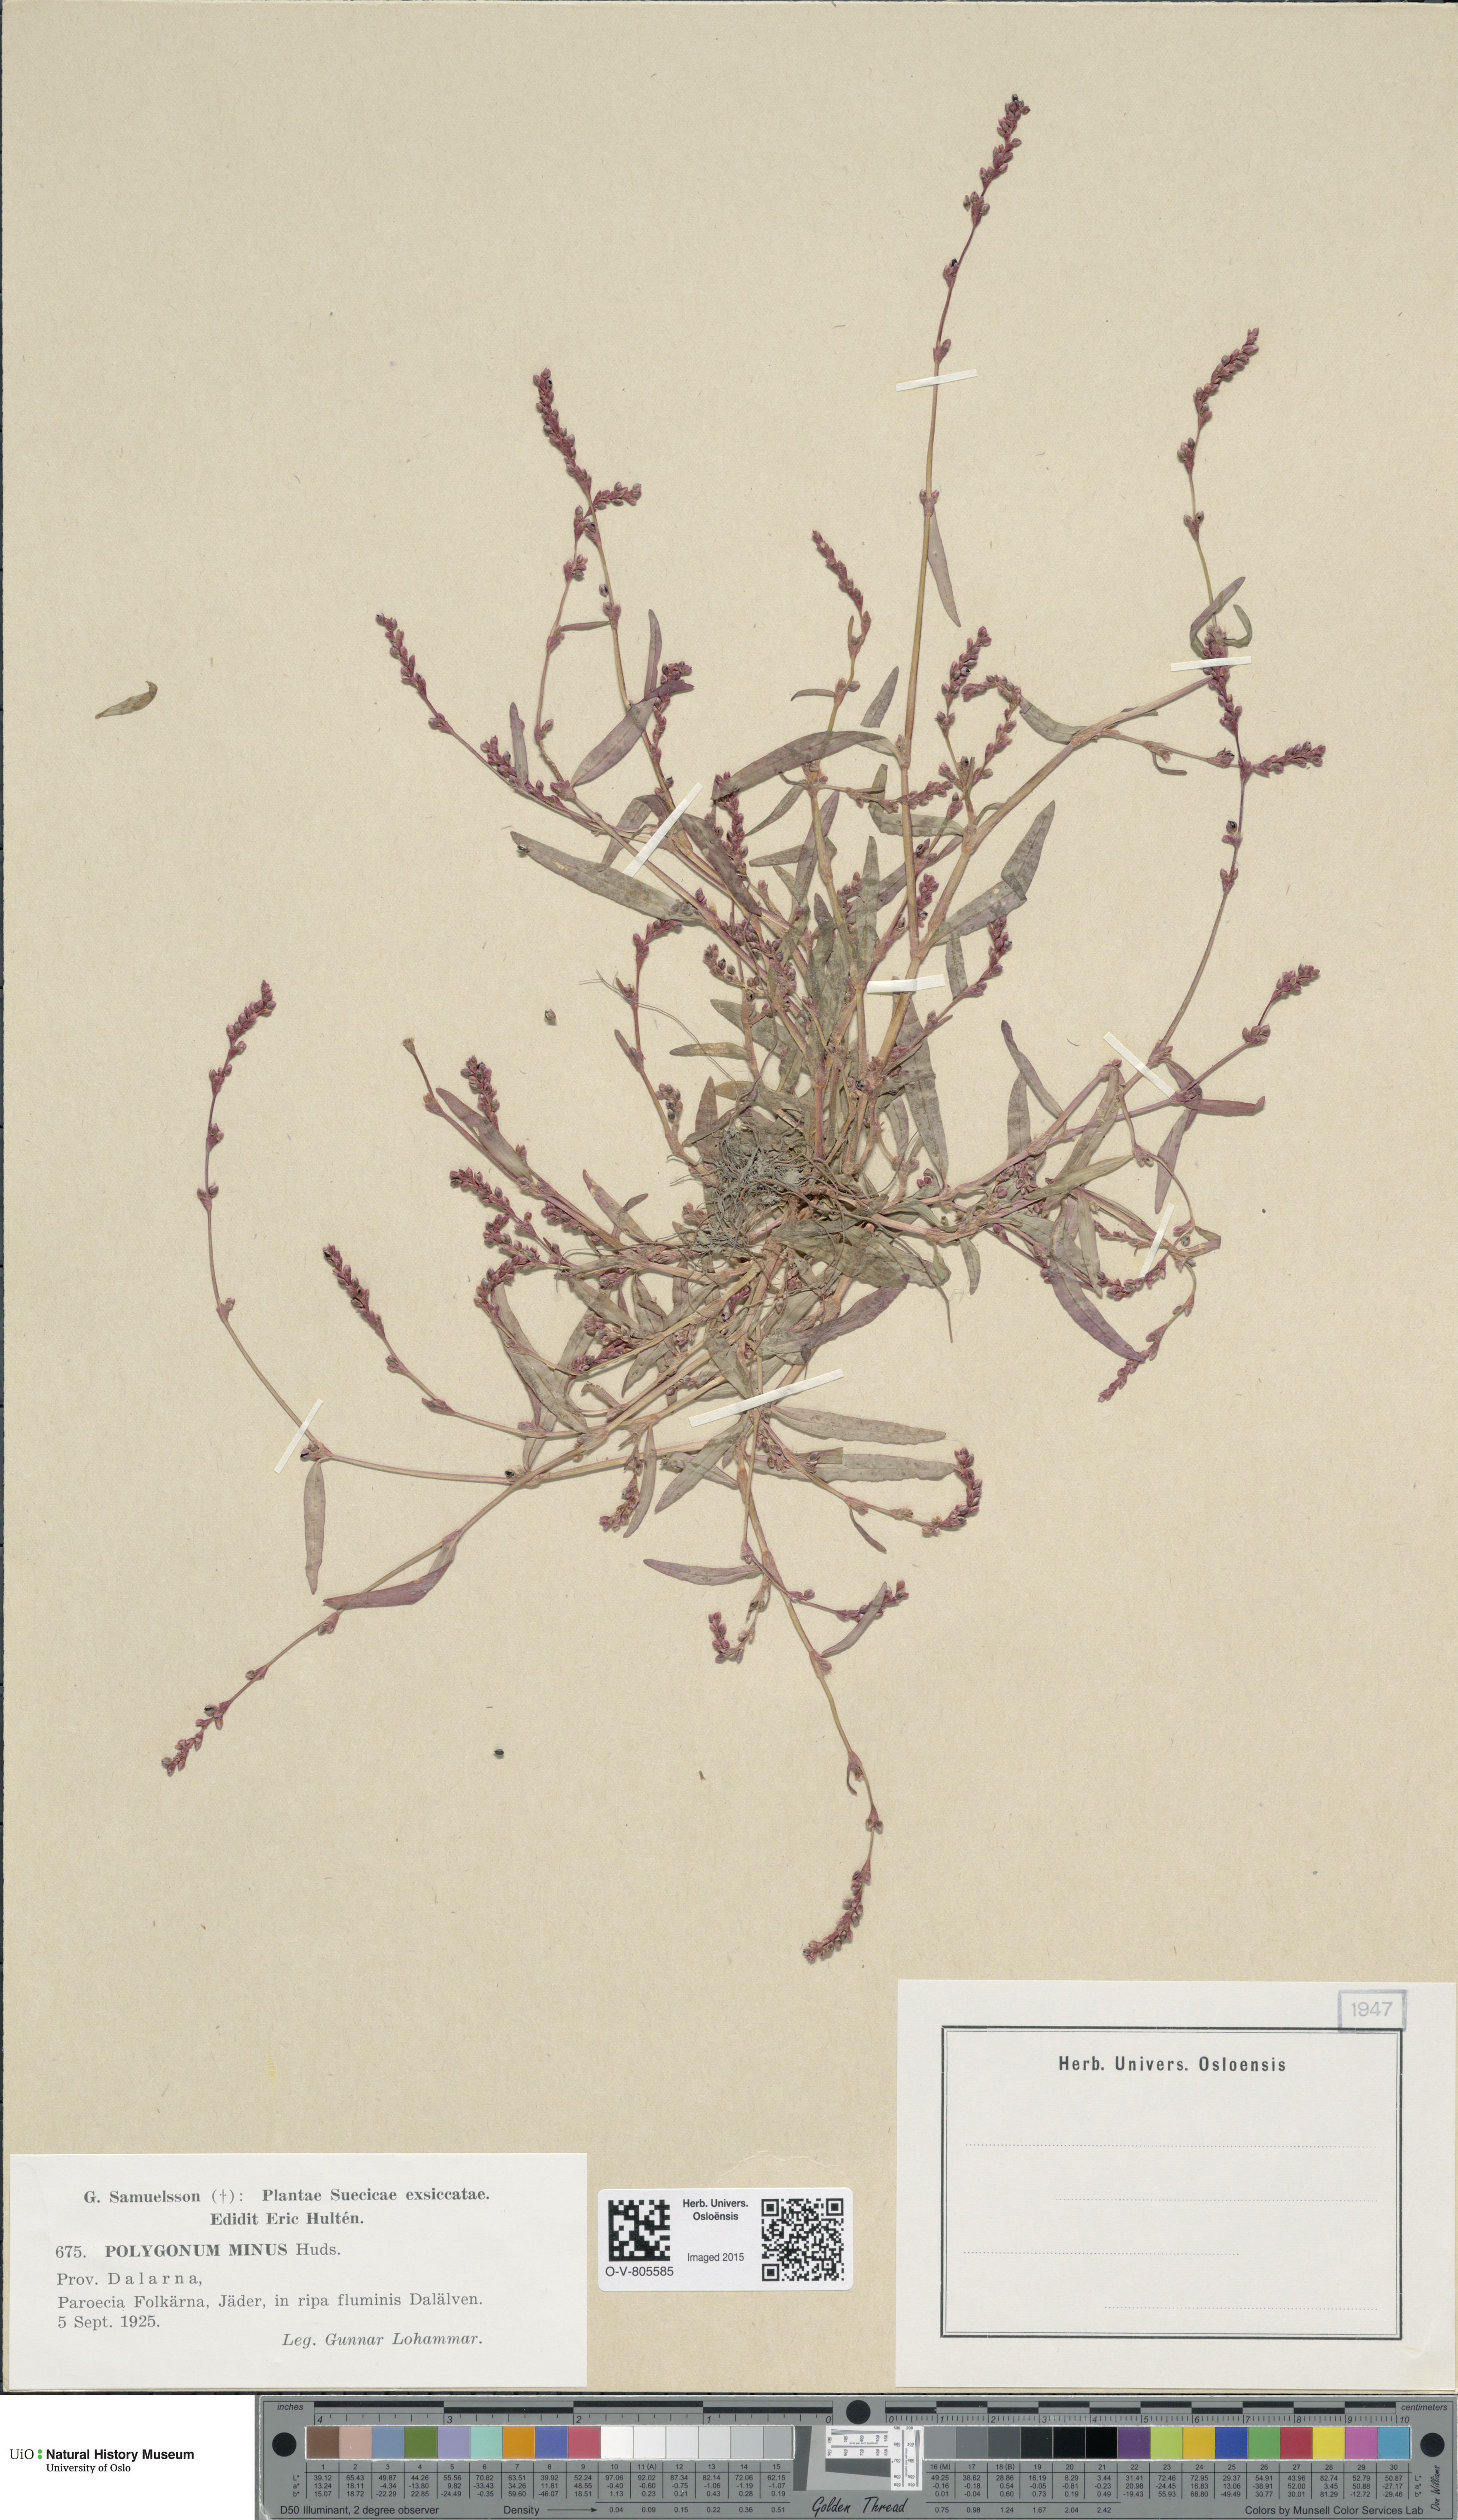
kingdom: Plantae
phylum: Tracheophyta
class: Magnoliopsida
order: Caryophyllales
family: Polygonaceae
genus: Persicaria
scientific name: Persicaria minor
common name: Small water-pepper
